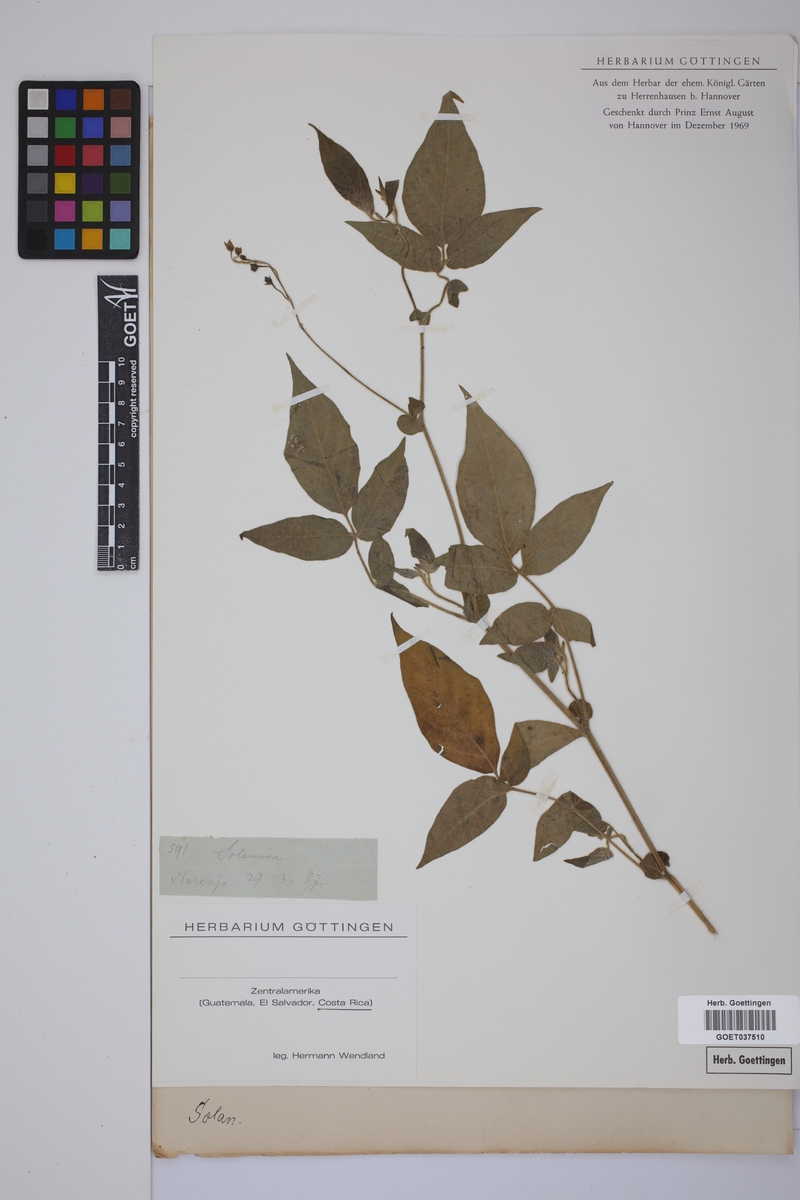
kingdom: Plantae
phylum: Tracheophyta
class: Magnoliopsida
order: Solanales
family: Solanaceae
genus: Solanum
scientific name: Solanum
